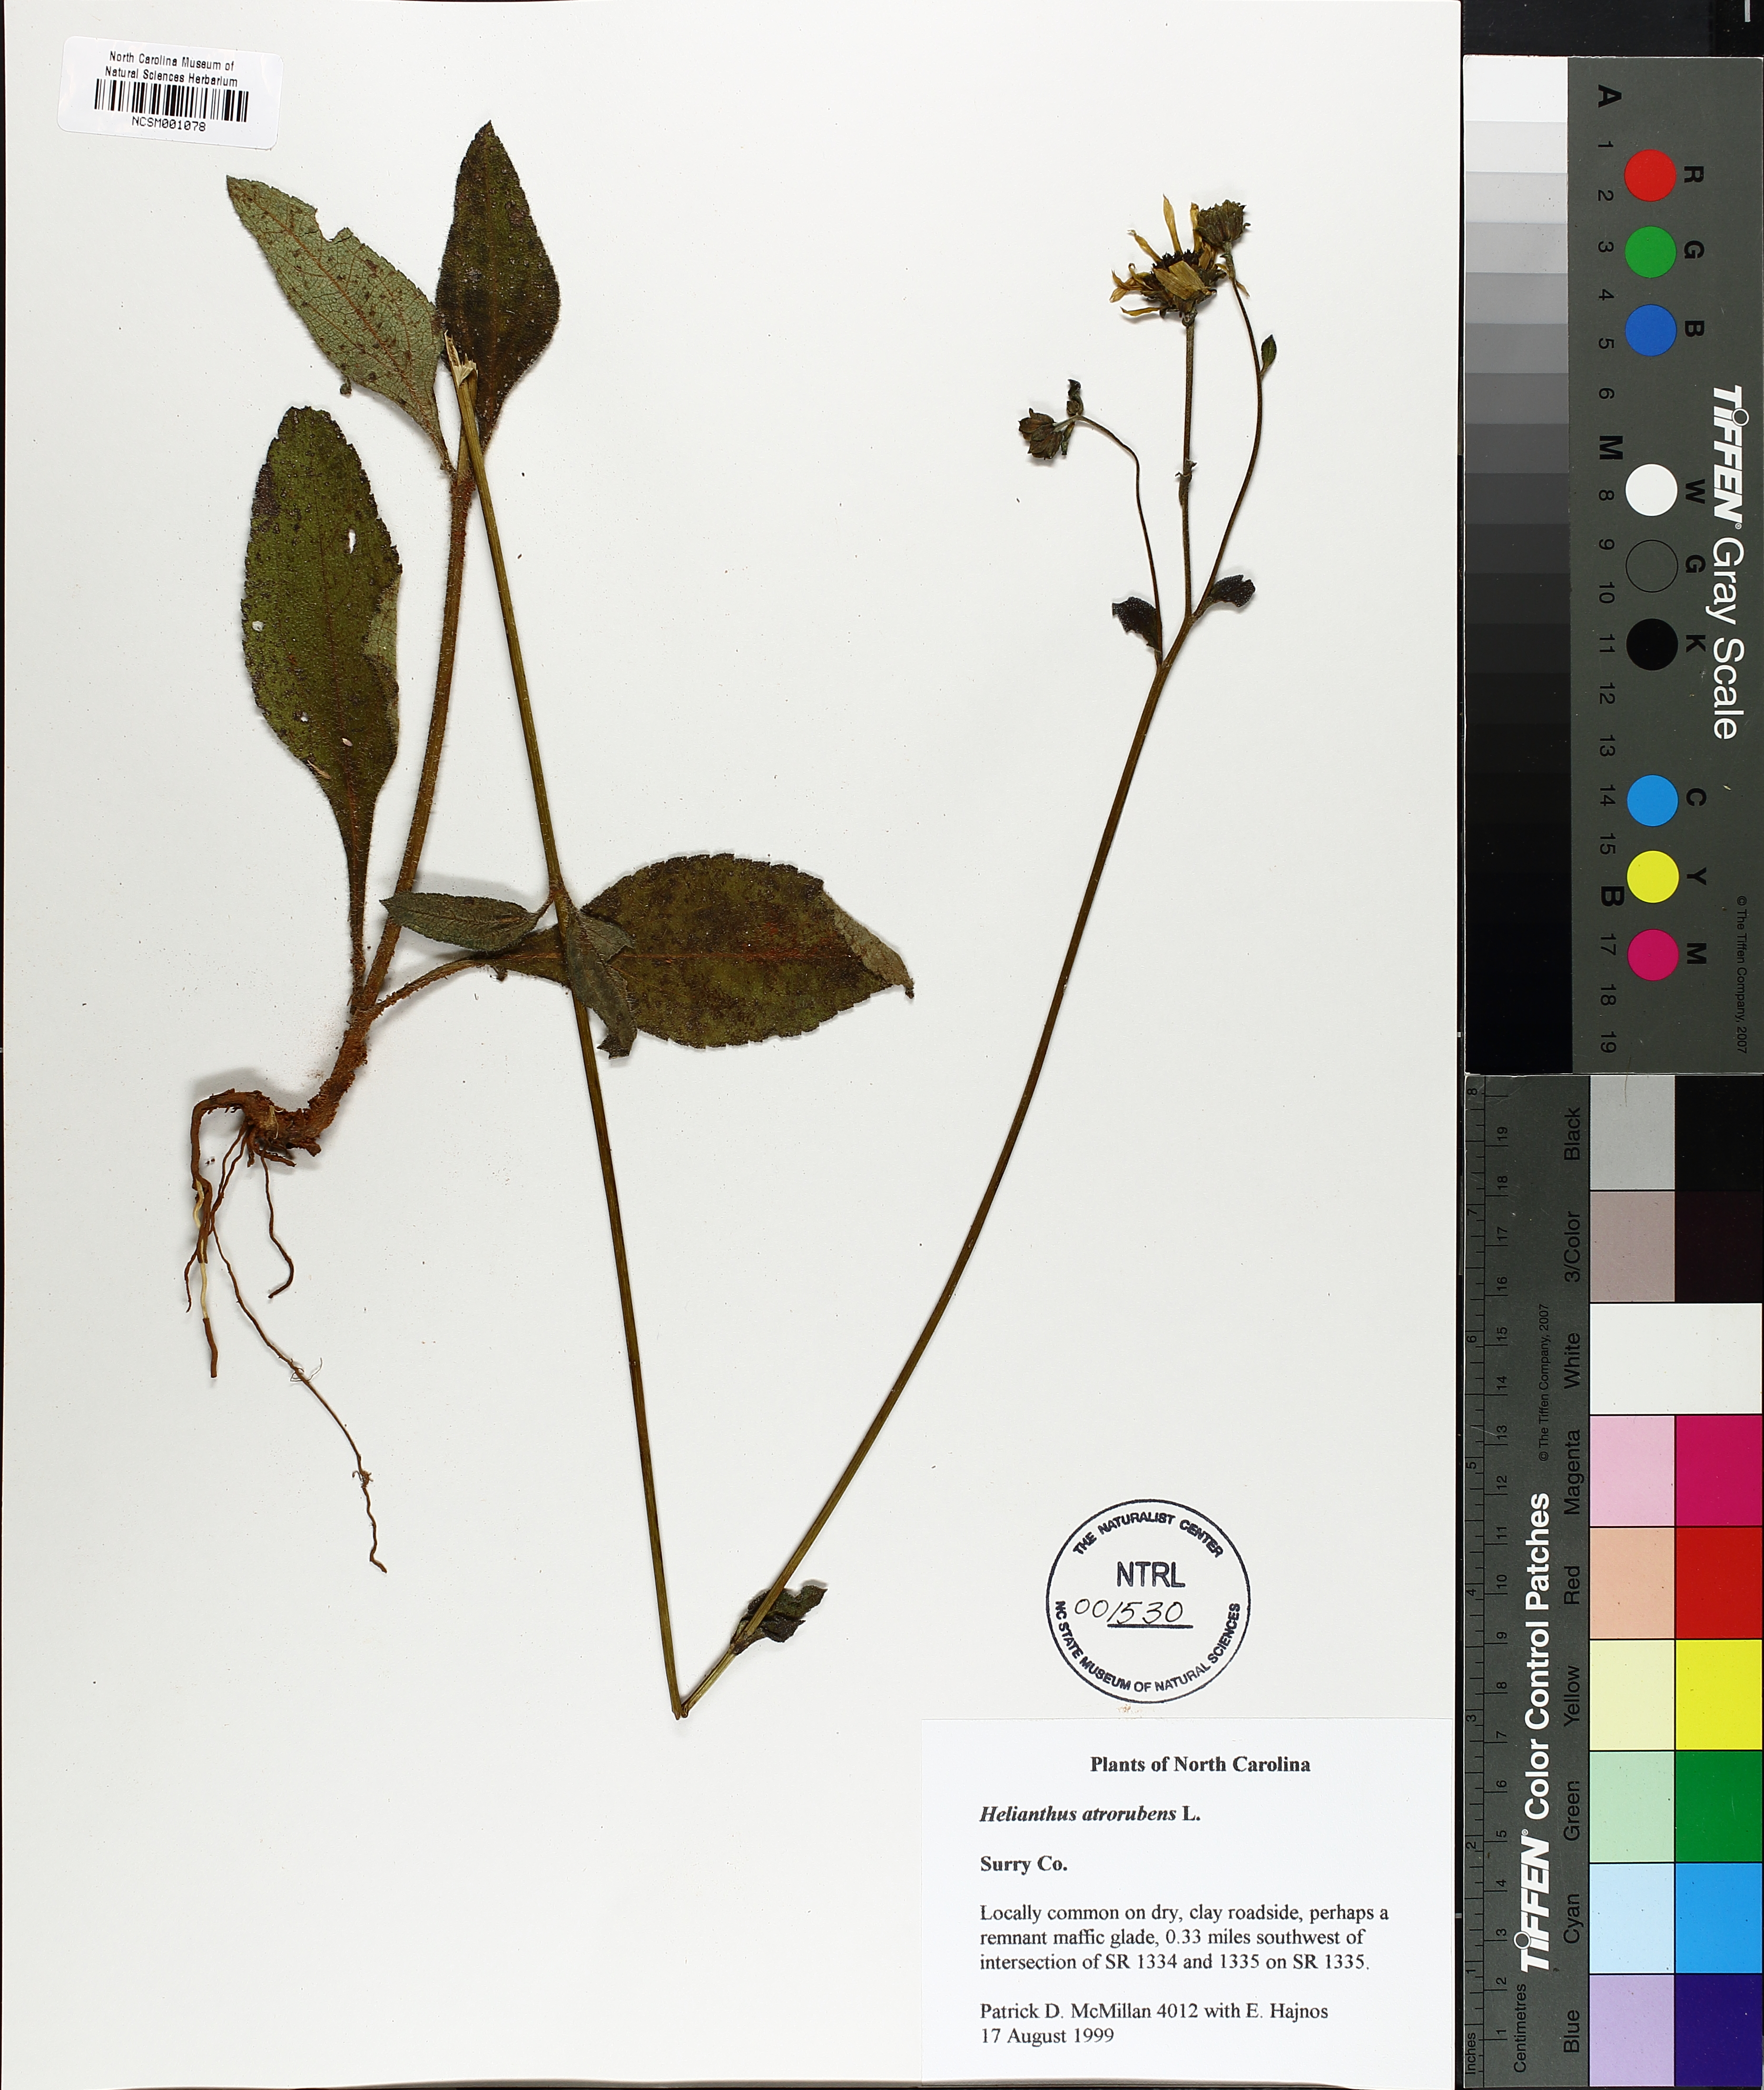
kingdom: Plantae
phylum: Tracheophyta
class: Magnoliopsida
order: Asterales
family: Asteraceae
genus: Helianthus
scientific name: Helianthus atrorubens
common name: Dark-eyed sunflower
